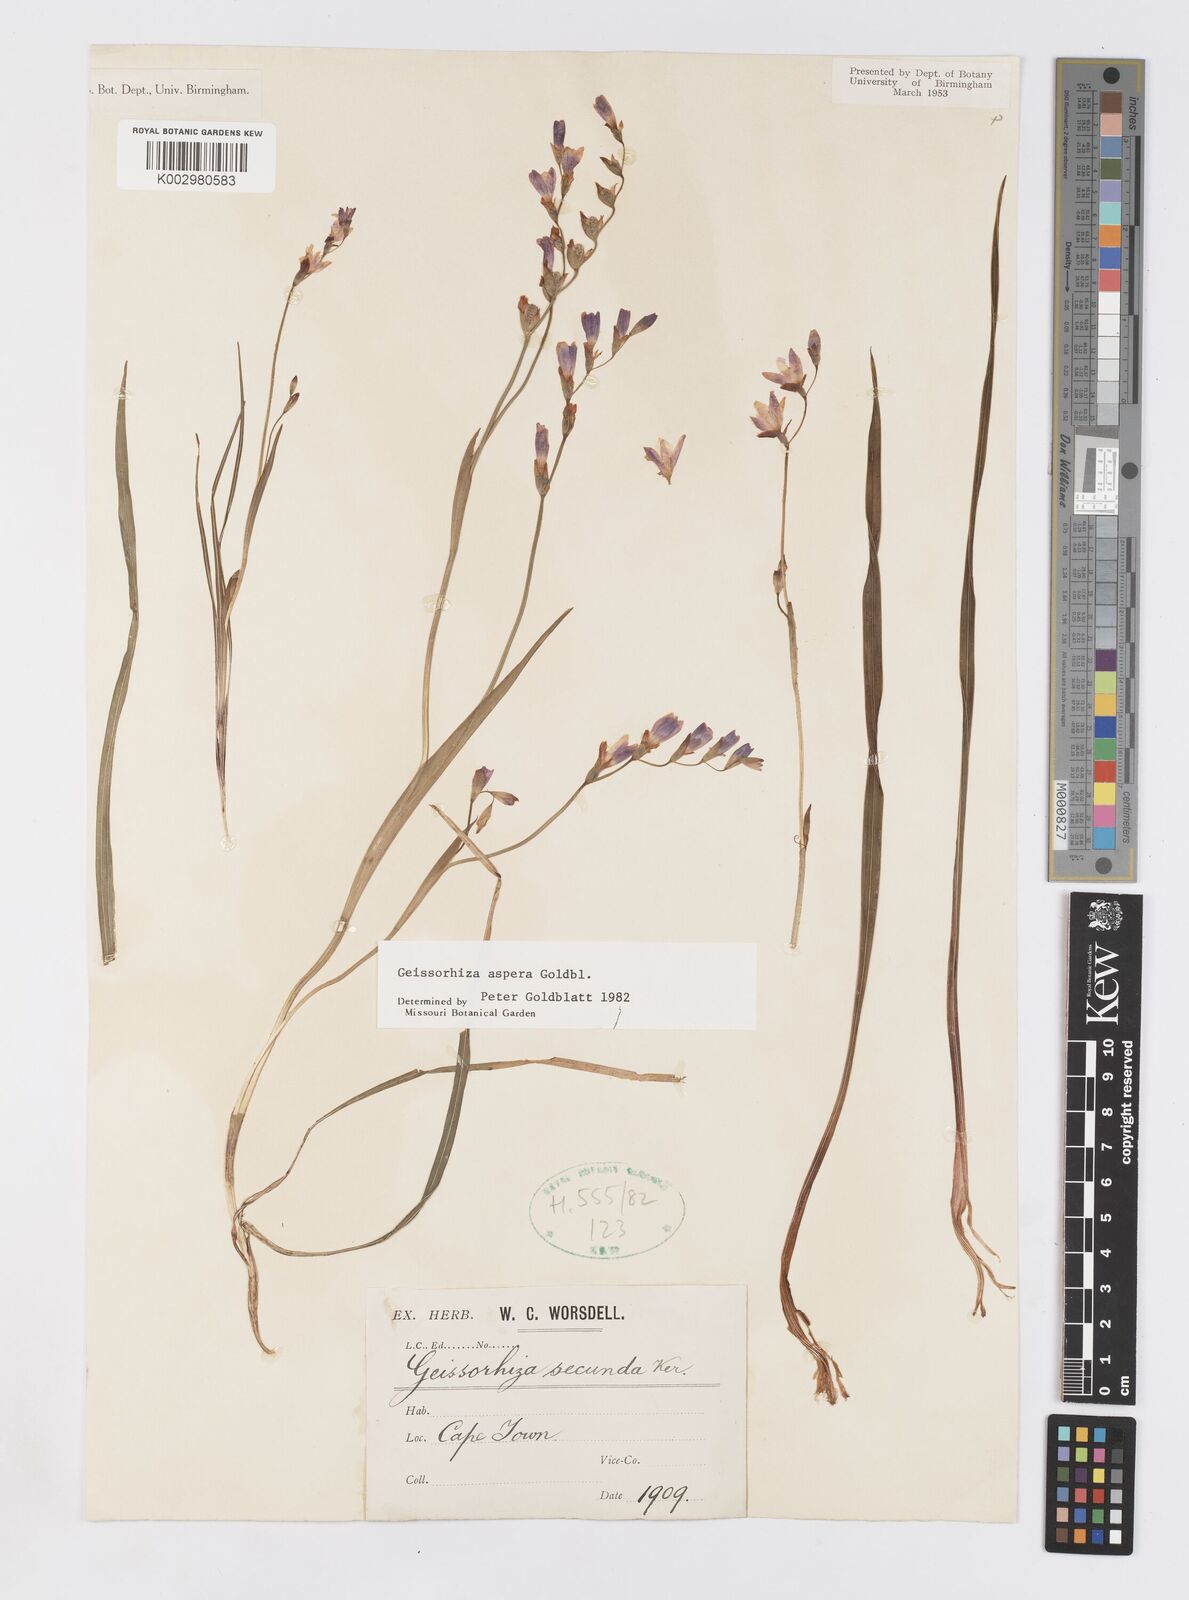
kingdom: Plantae
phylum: Tracheophyta
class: Liliopsida
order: Asparagales
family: Iridaceae
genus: Geissorhiza
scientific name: Geissorhiza aspera
